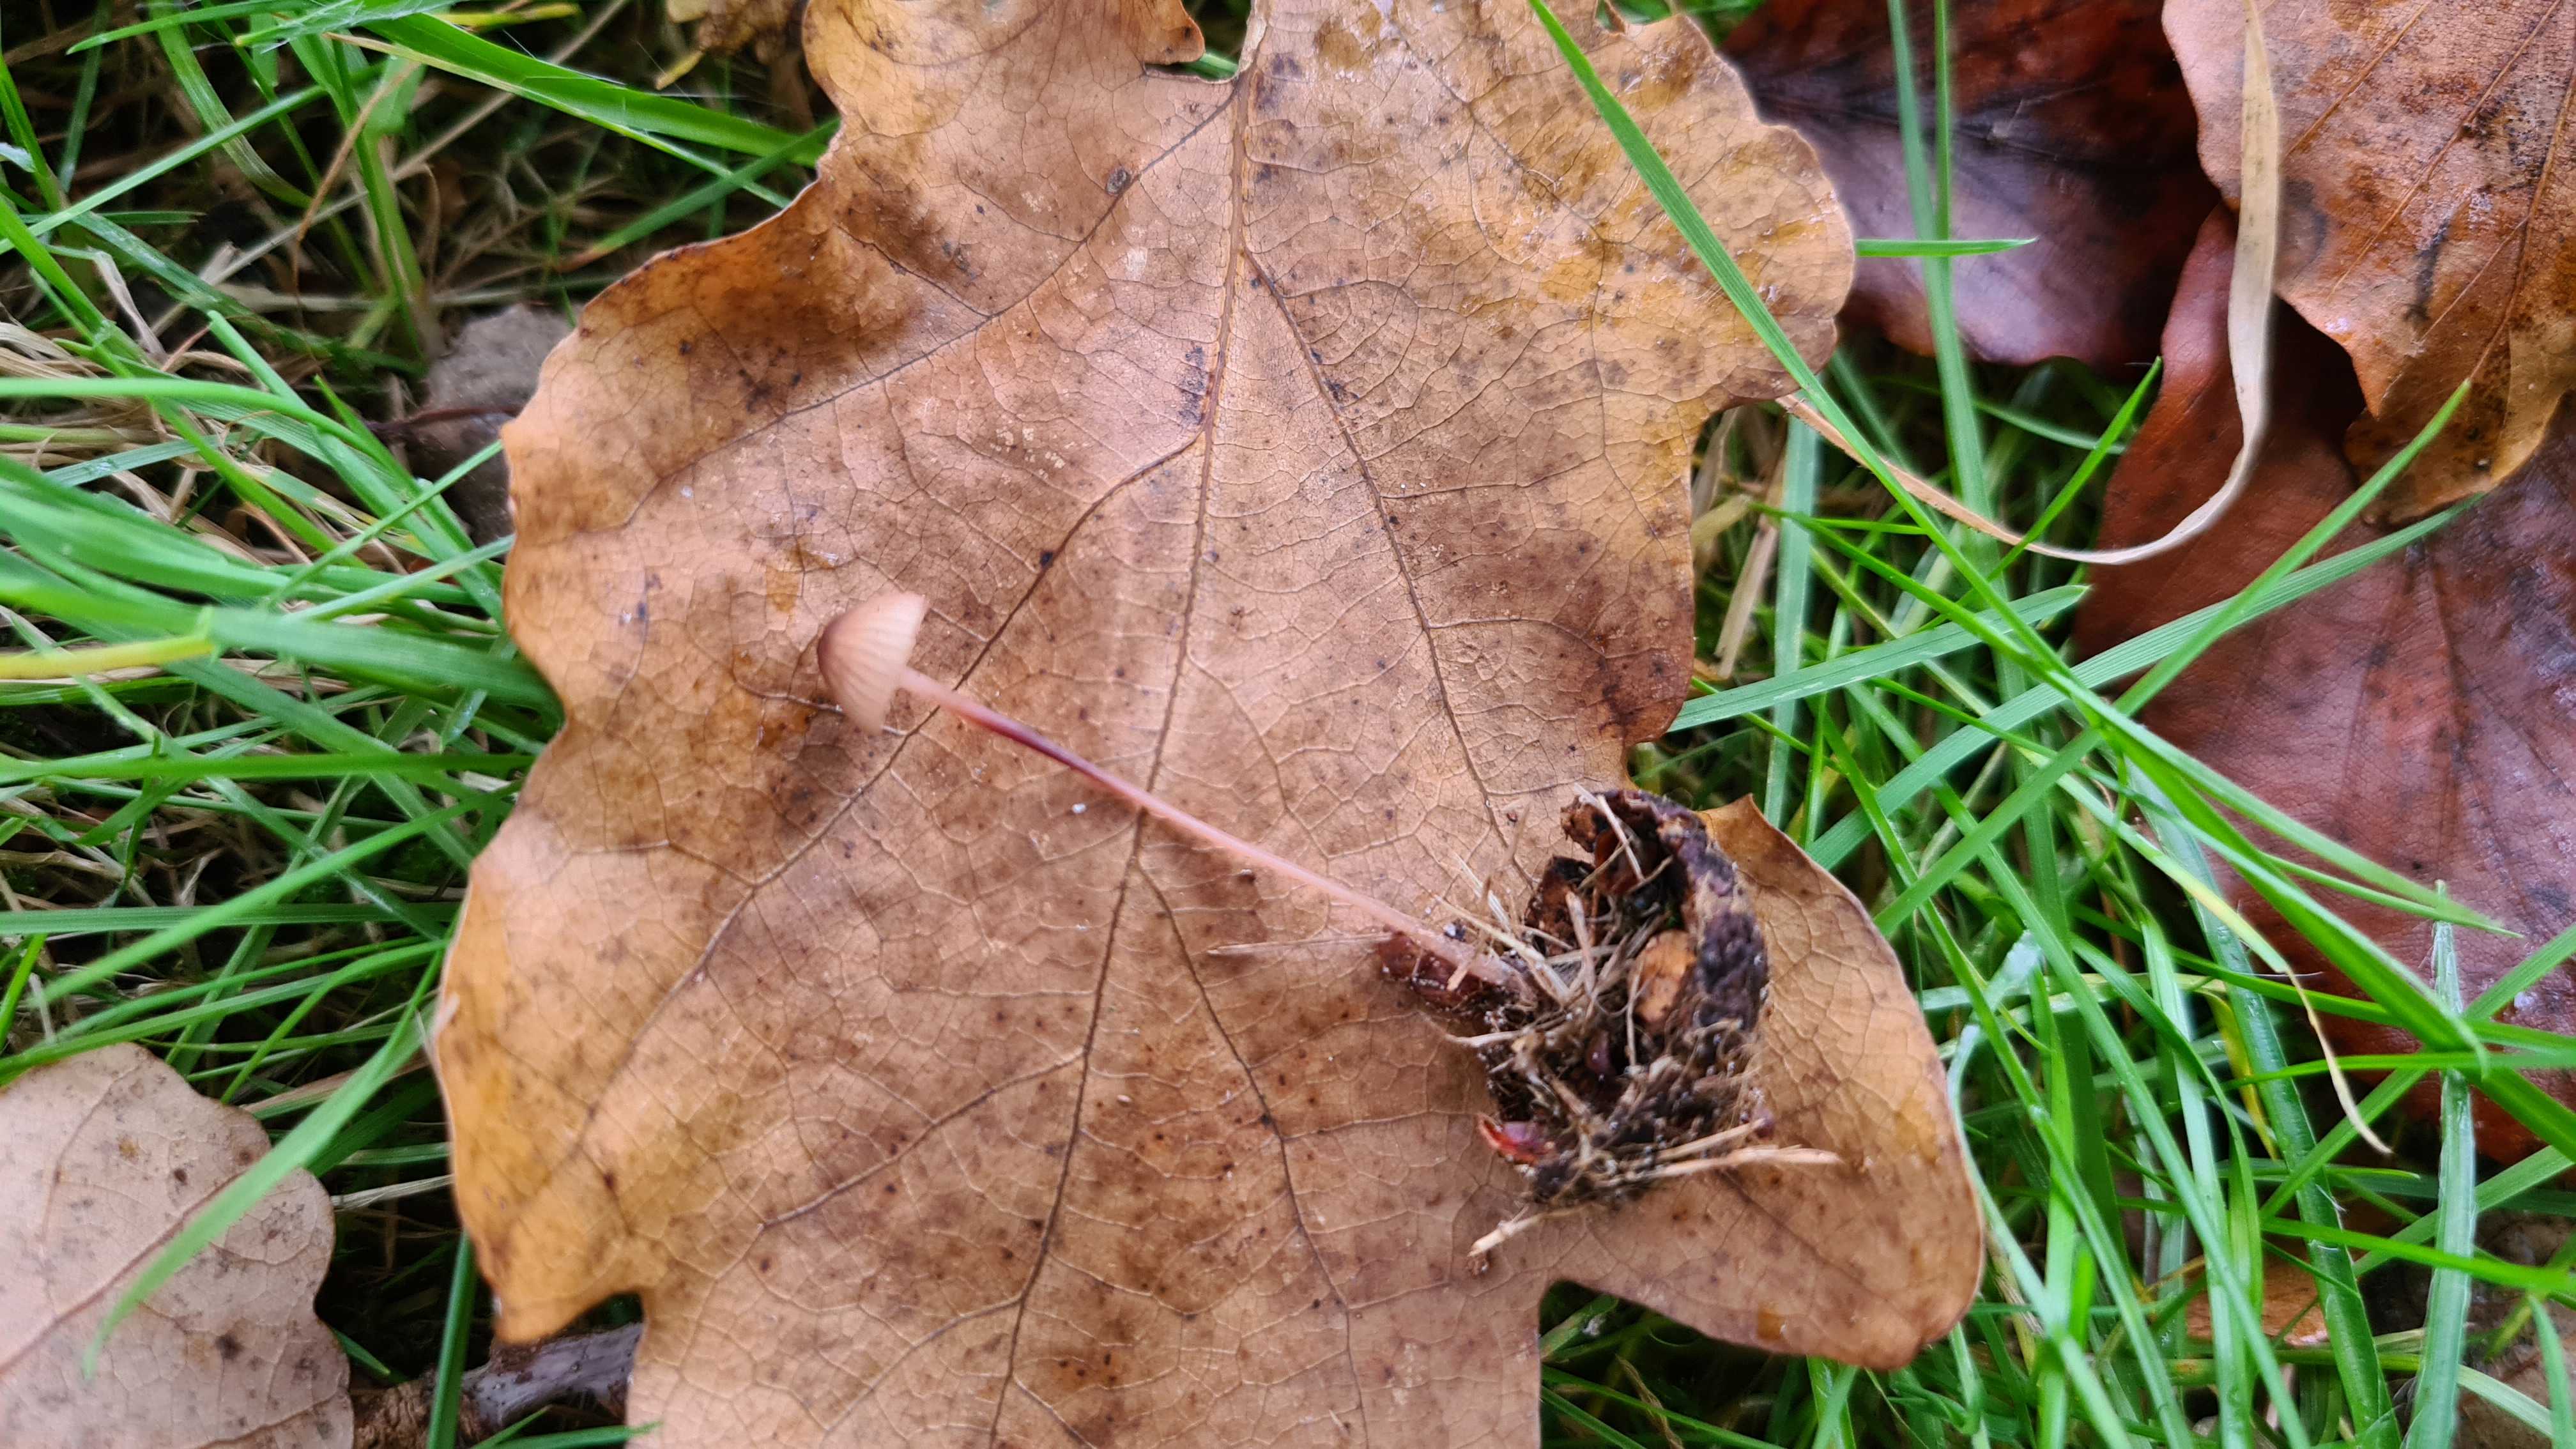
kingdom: Fungi
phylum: Basidiomycota
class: Agaricomycetes
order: Agaricales
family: Mycenaceae
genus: Mycena
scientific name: Mycena sanguinolenta
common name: rødmælket huesvamp
